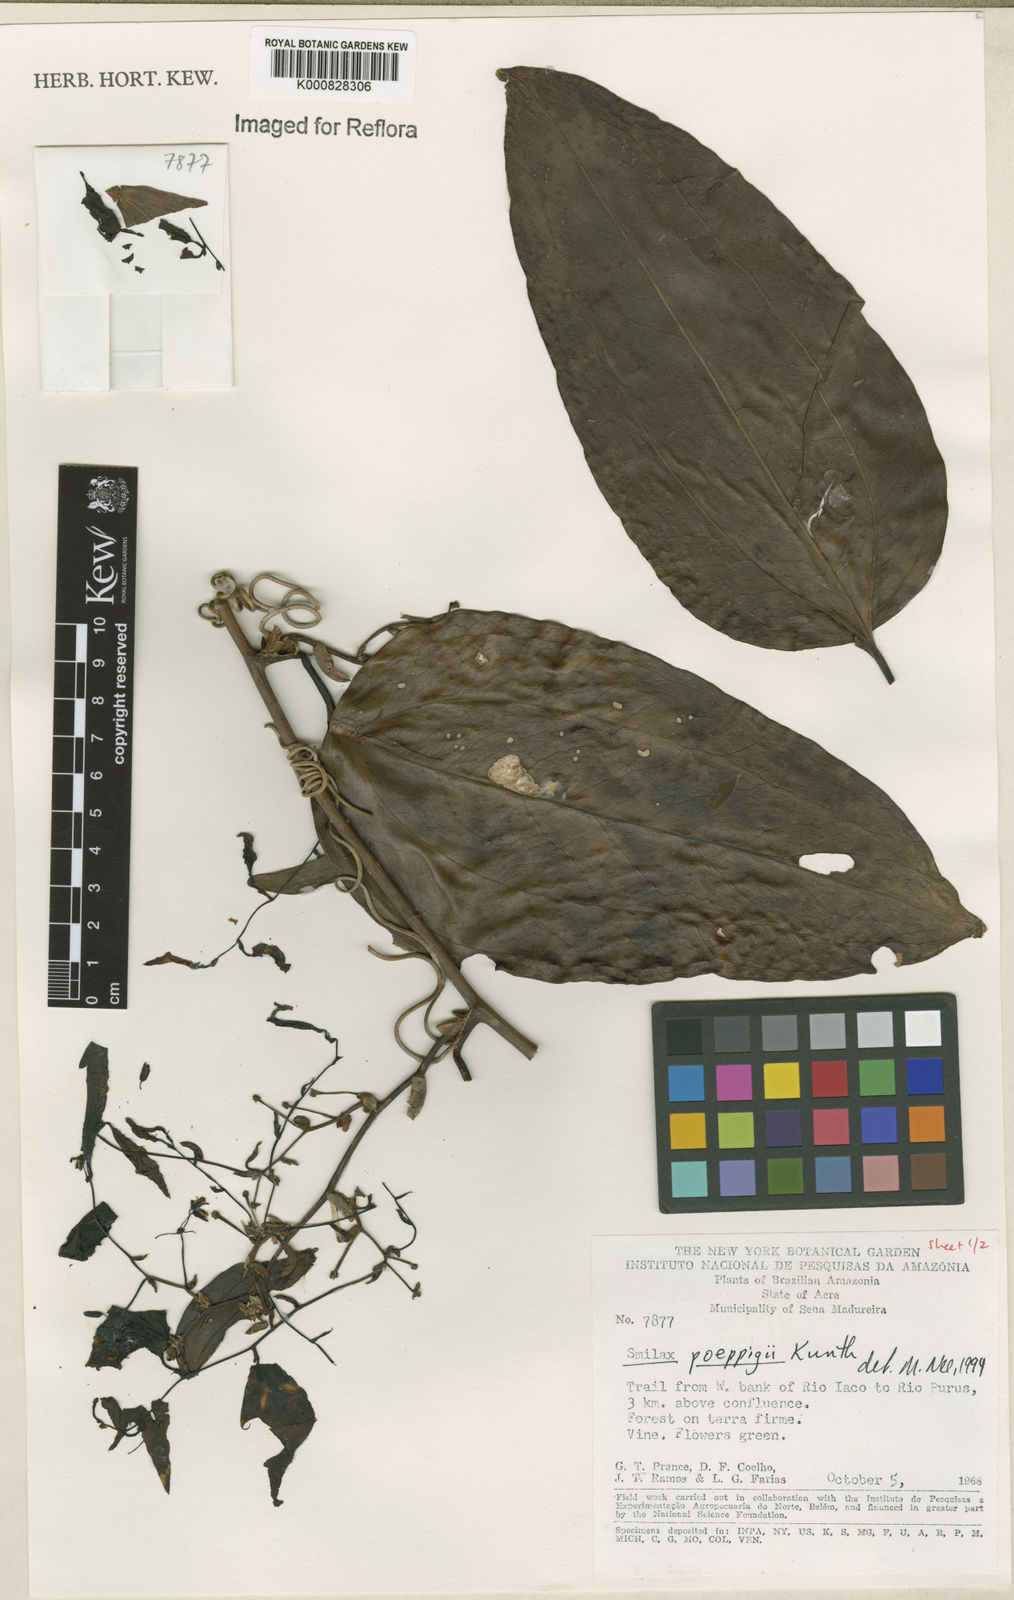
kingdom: Plantae
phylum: Tracheophyta
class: Liliopsida
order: Liliales
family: Smilacaceae
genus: Smilax
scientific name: Smilax purhampuy
